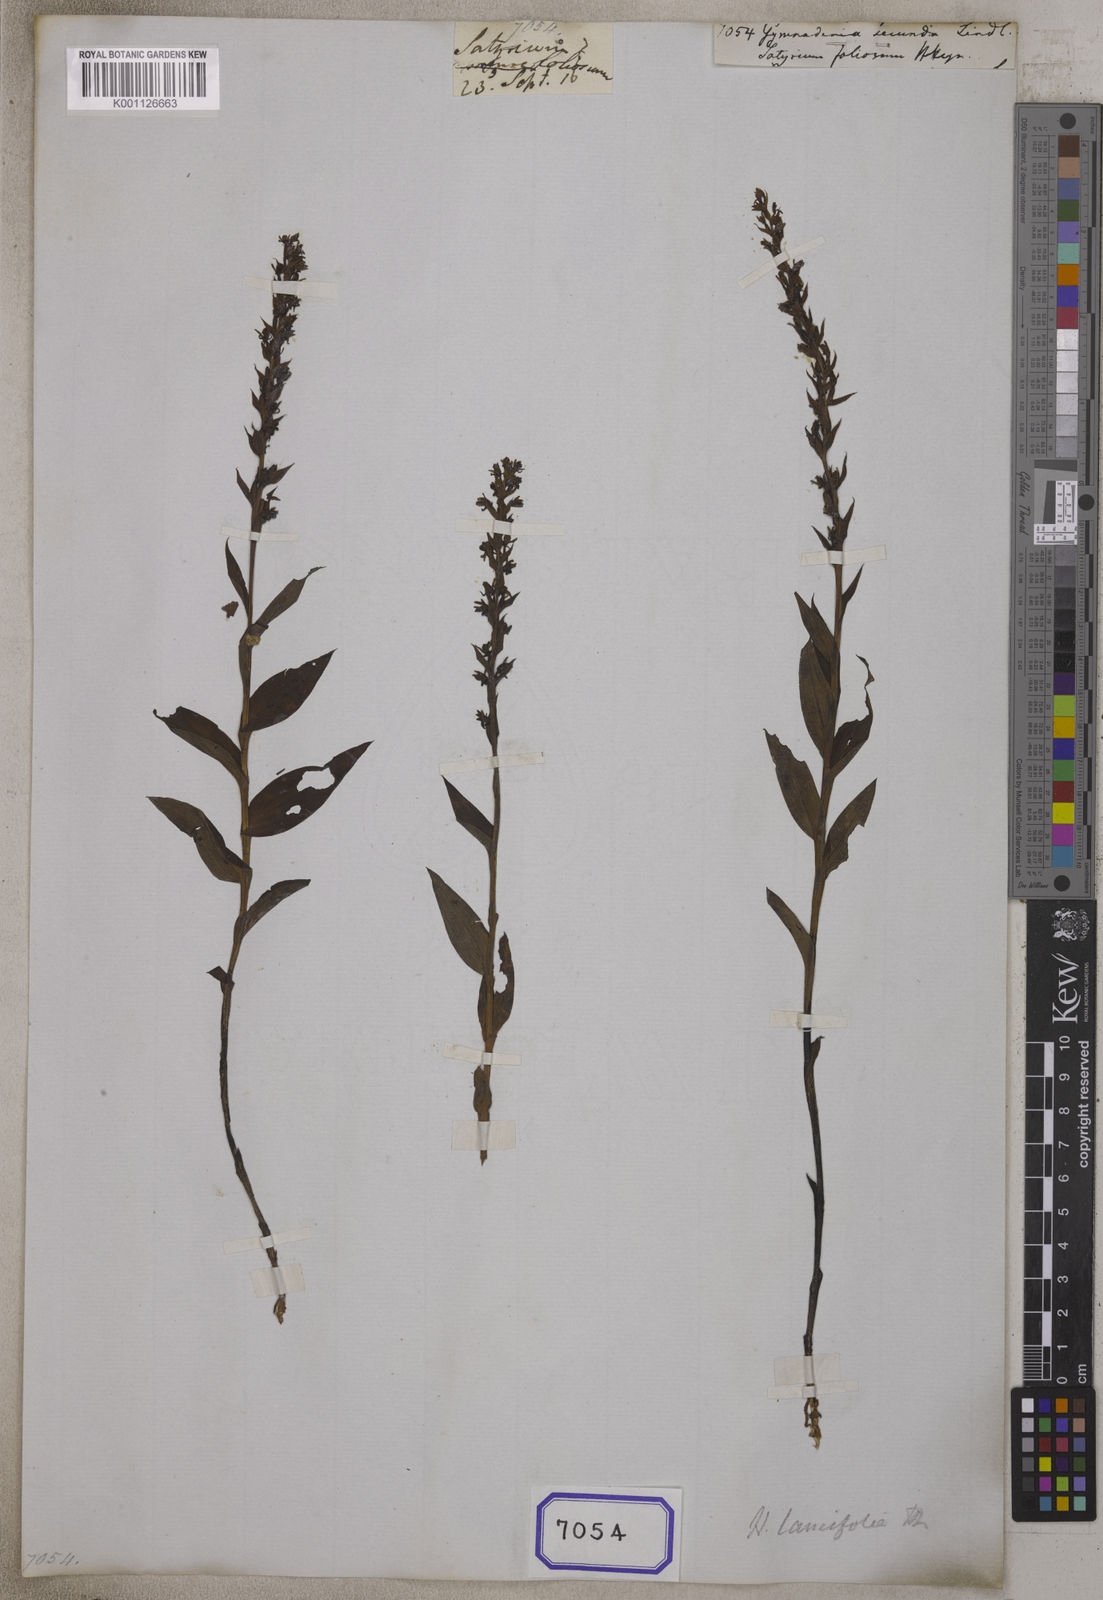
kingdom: Plantae
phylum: Tracheophyta
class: Liliopsida
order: Asparagales
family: Orchidaceae
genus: Gymnadenia
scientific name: Gymnadenia
